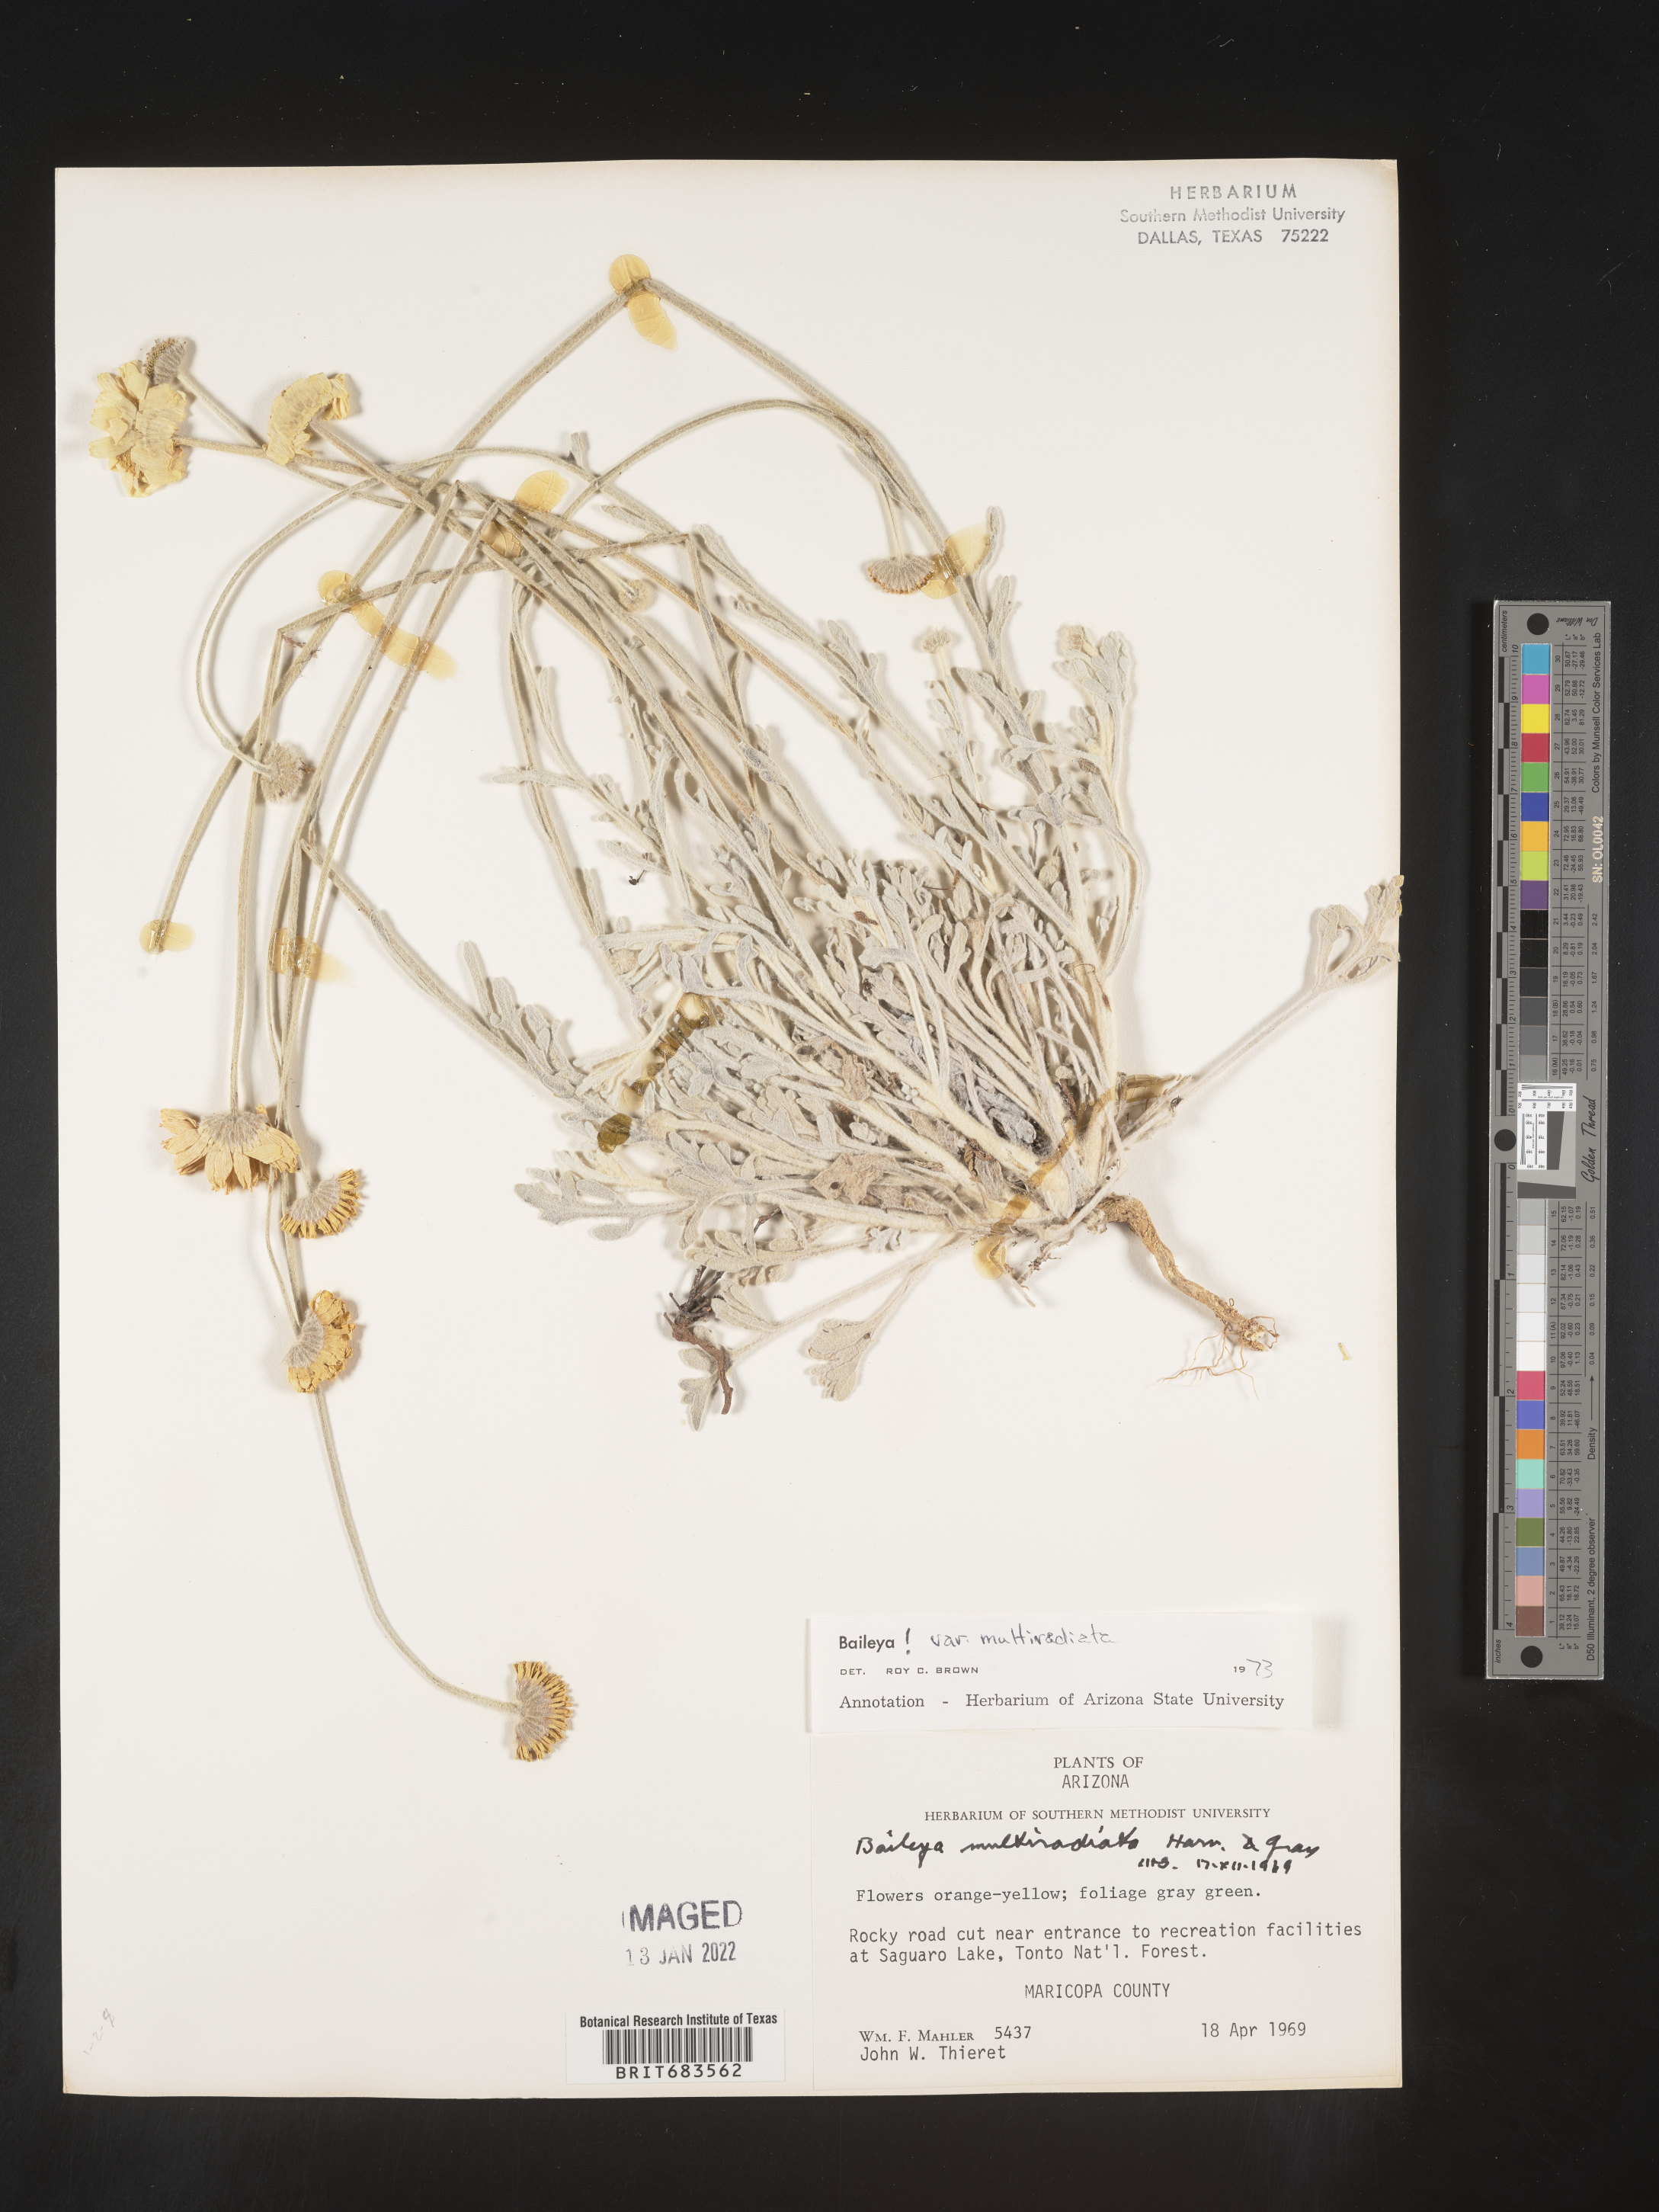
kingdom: Plantae
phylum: Tracheophyta
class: Magnoliopsida
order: Asterales
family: Asteraceae
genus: Baileya
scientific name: Baileya multiradiata
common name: Desert-marigold
